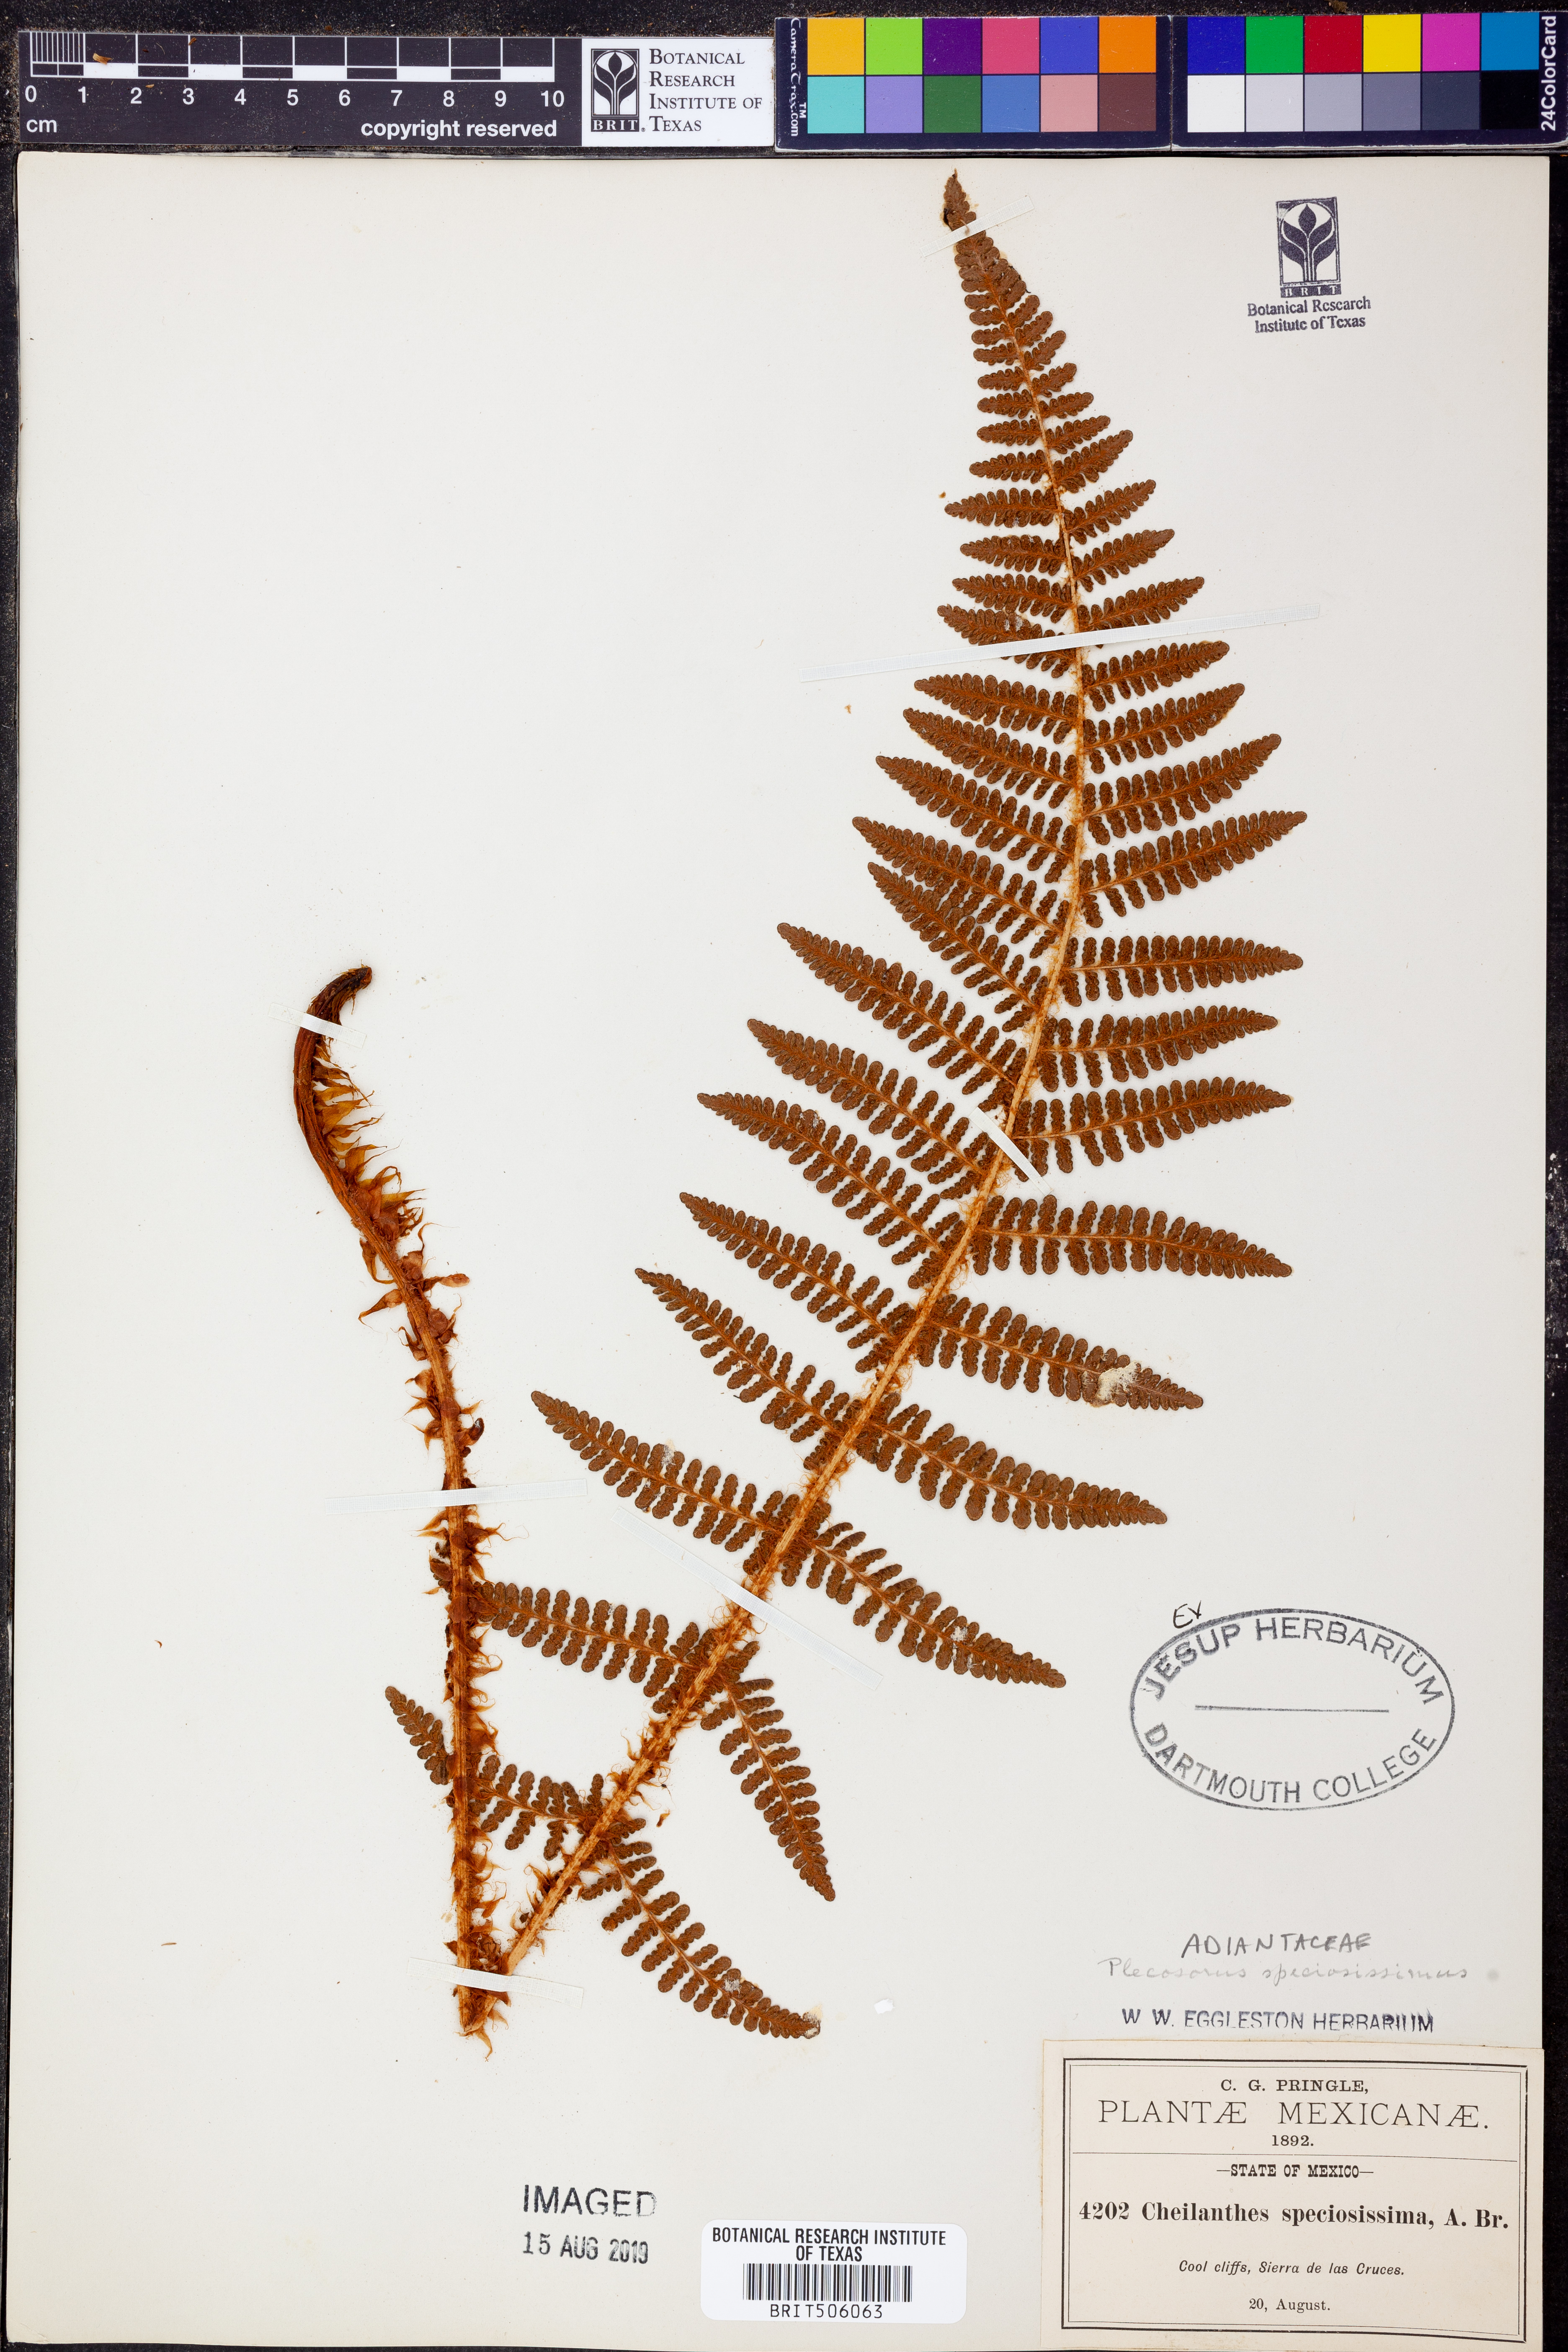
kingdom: Plantae
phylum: Tracheophyta
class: Polypodiopsida
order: Polypodiales
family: Dryopteridaceae
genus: Polystichum
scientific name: Polystichum speciosissimum
